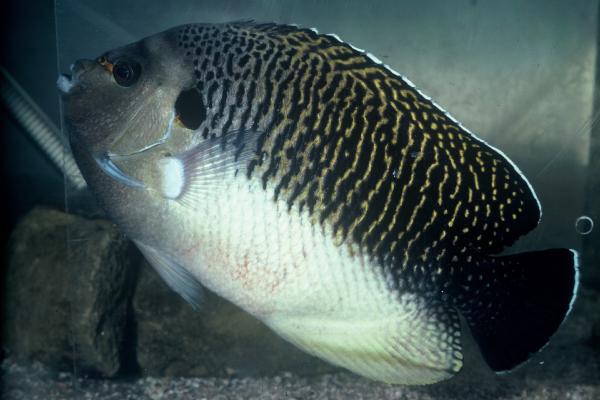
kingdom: Animalia
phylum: Chordata
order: Perciformes
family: Pomacanthidae
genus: Apolemichthys
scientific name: Apolemichthys kingi
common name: Tiger angelfish
